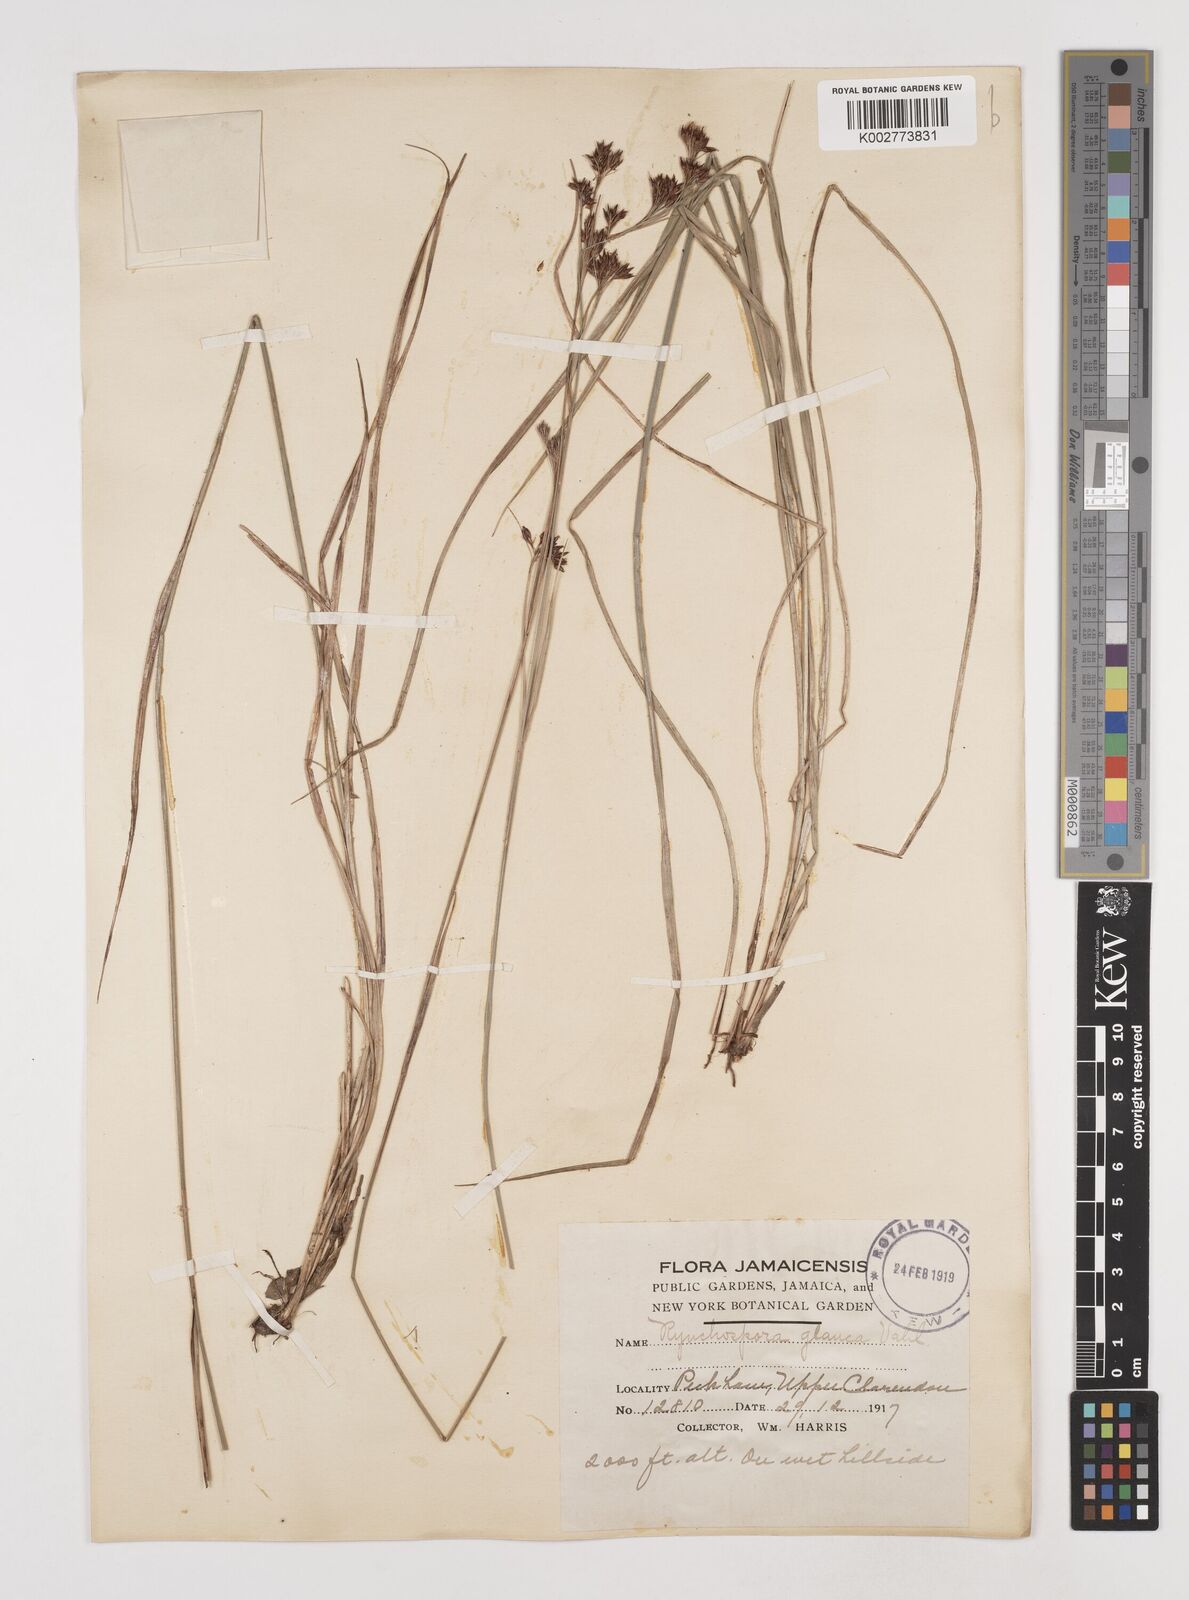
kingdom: Plantae
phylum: Tracheophyta
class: Liliopsida
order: Poales
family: Cyperaceae
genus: Rhynchospora
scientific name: Rhynchospora rugosa
